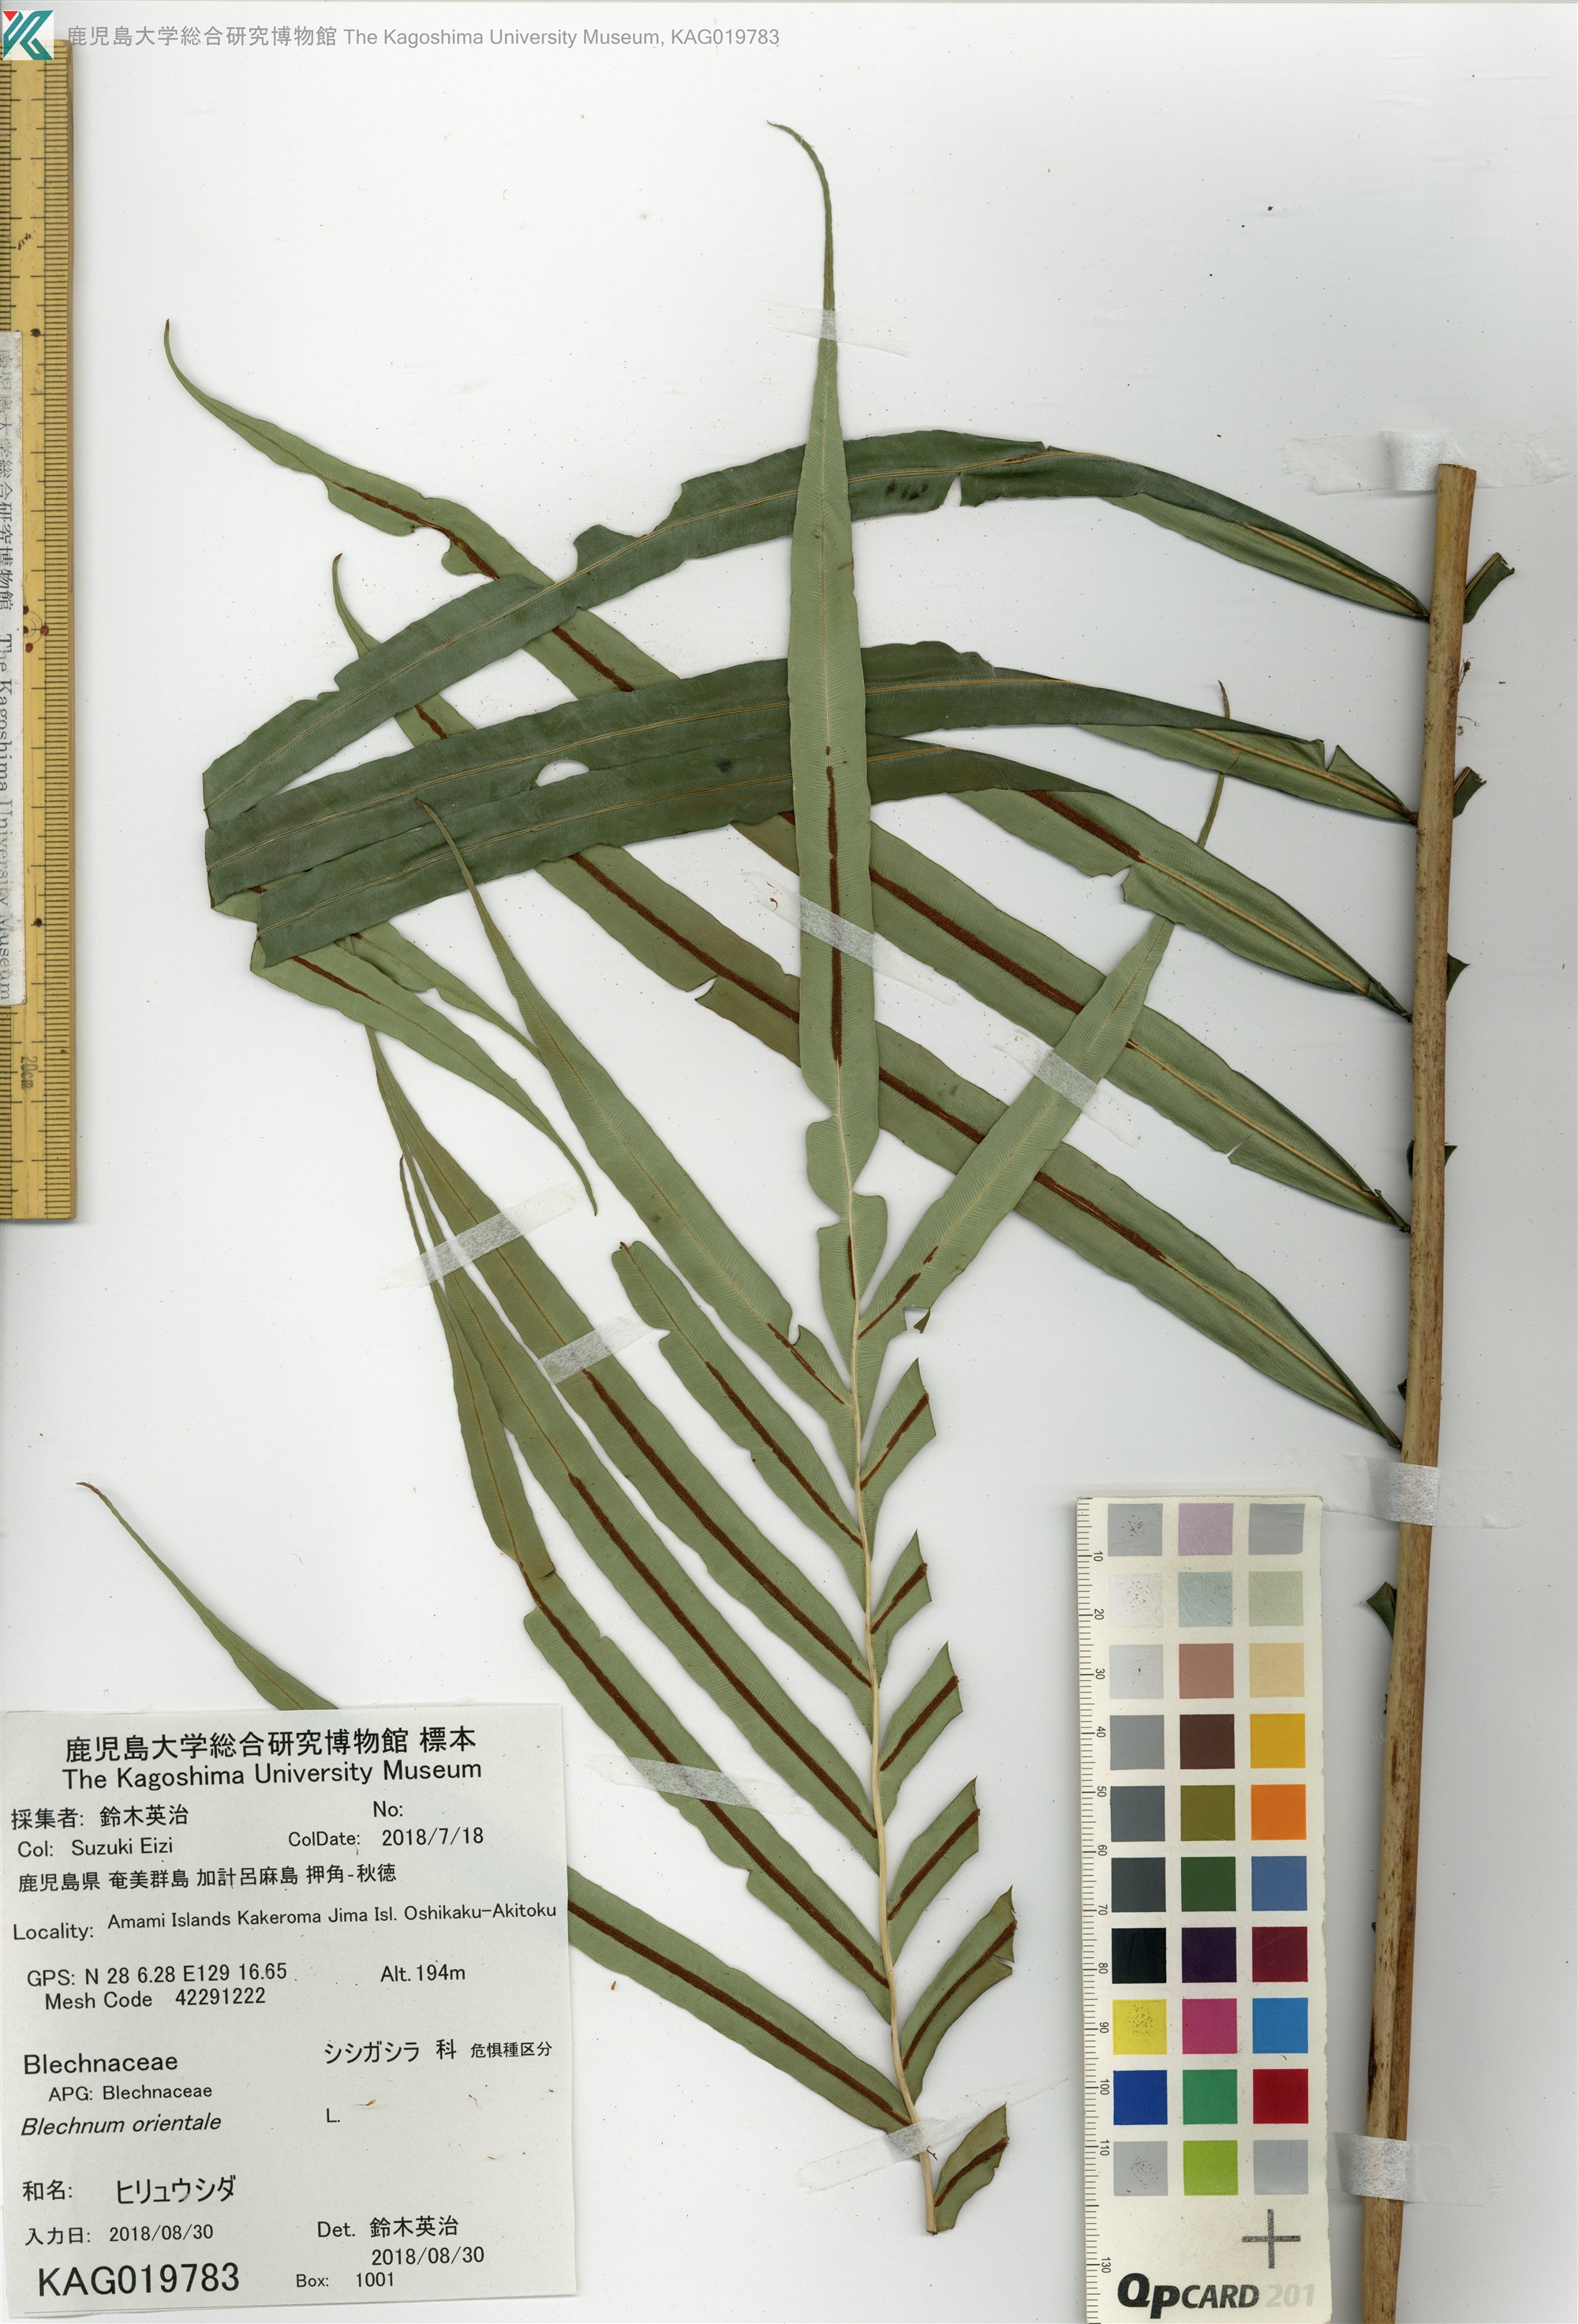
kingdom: Plantae
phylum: Tracheophyta
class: Polypodiopsida
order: Polypodiales
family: Blechnaceae
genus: Blechnopsis
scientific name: Blechnopsis orientalis
